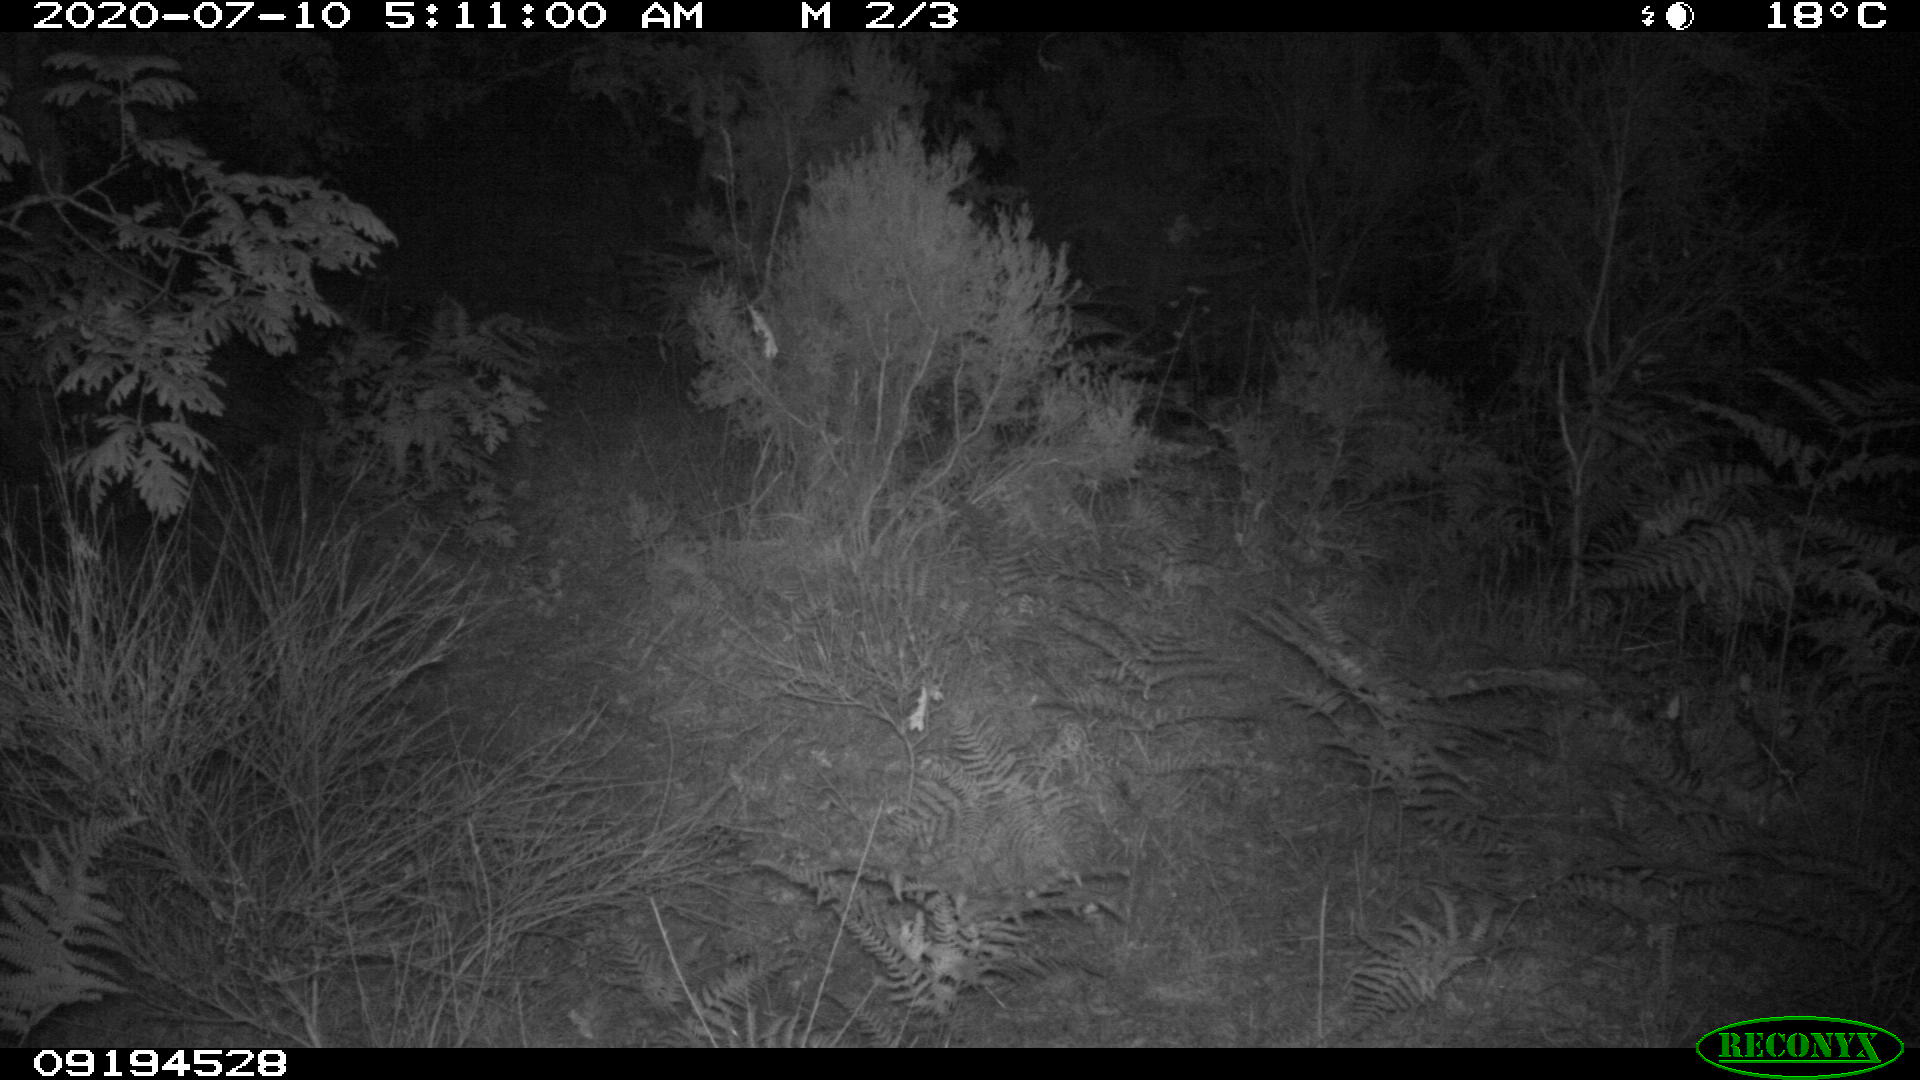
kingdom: Animalia
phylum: Chordata
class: Mammalia
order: Artiodactyla
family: Suidae
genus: Sus
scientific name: Sus scrofa
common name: Wild boar
